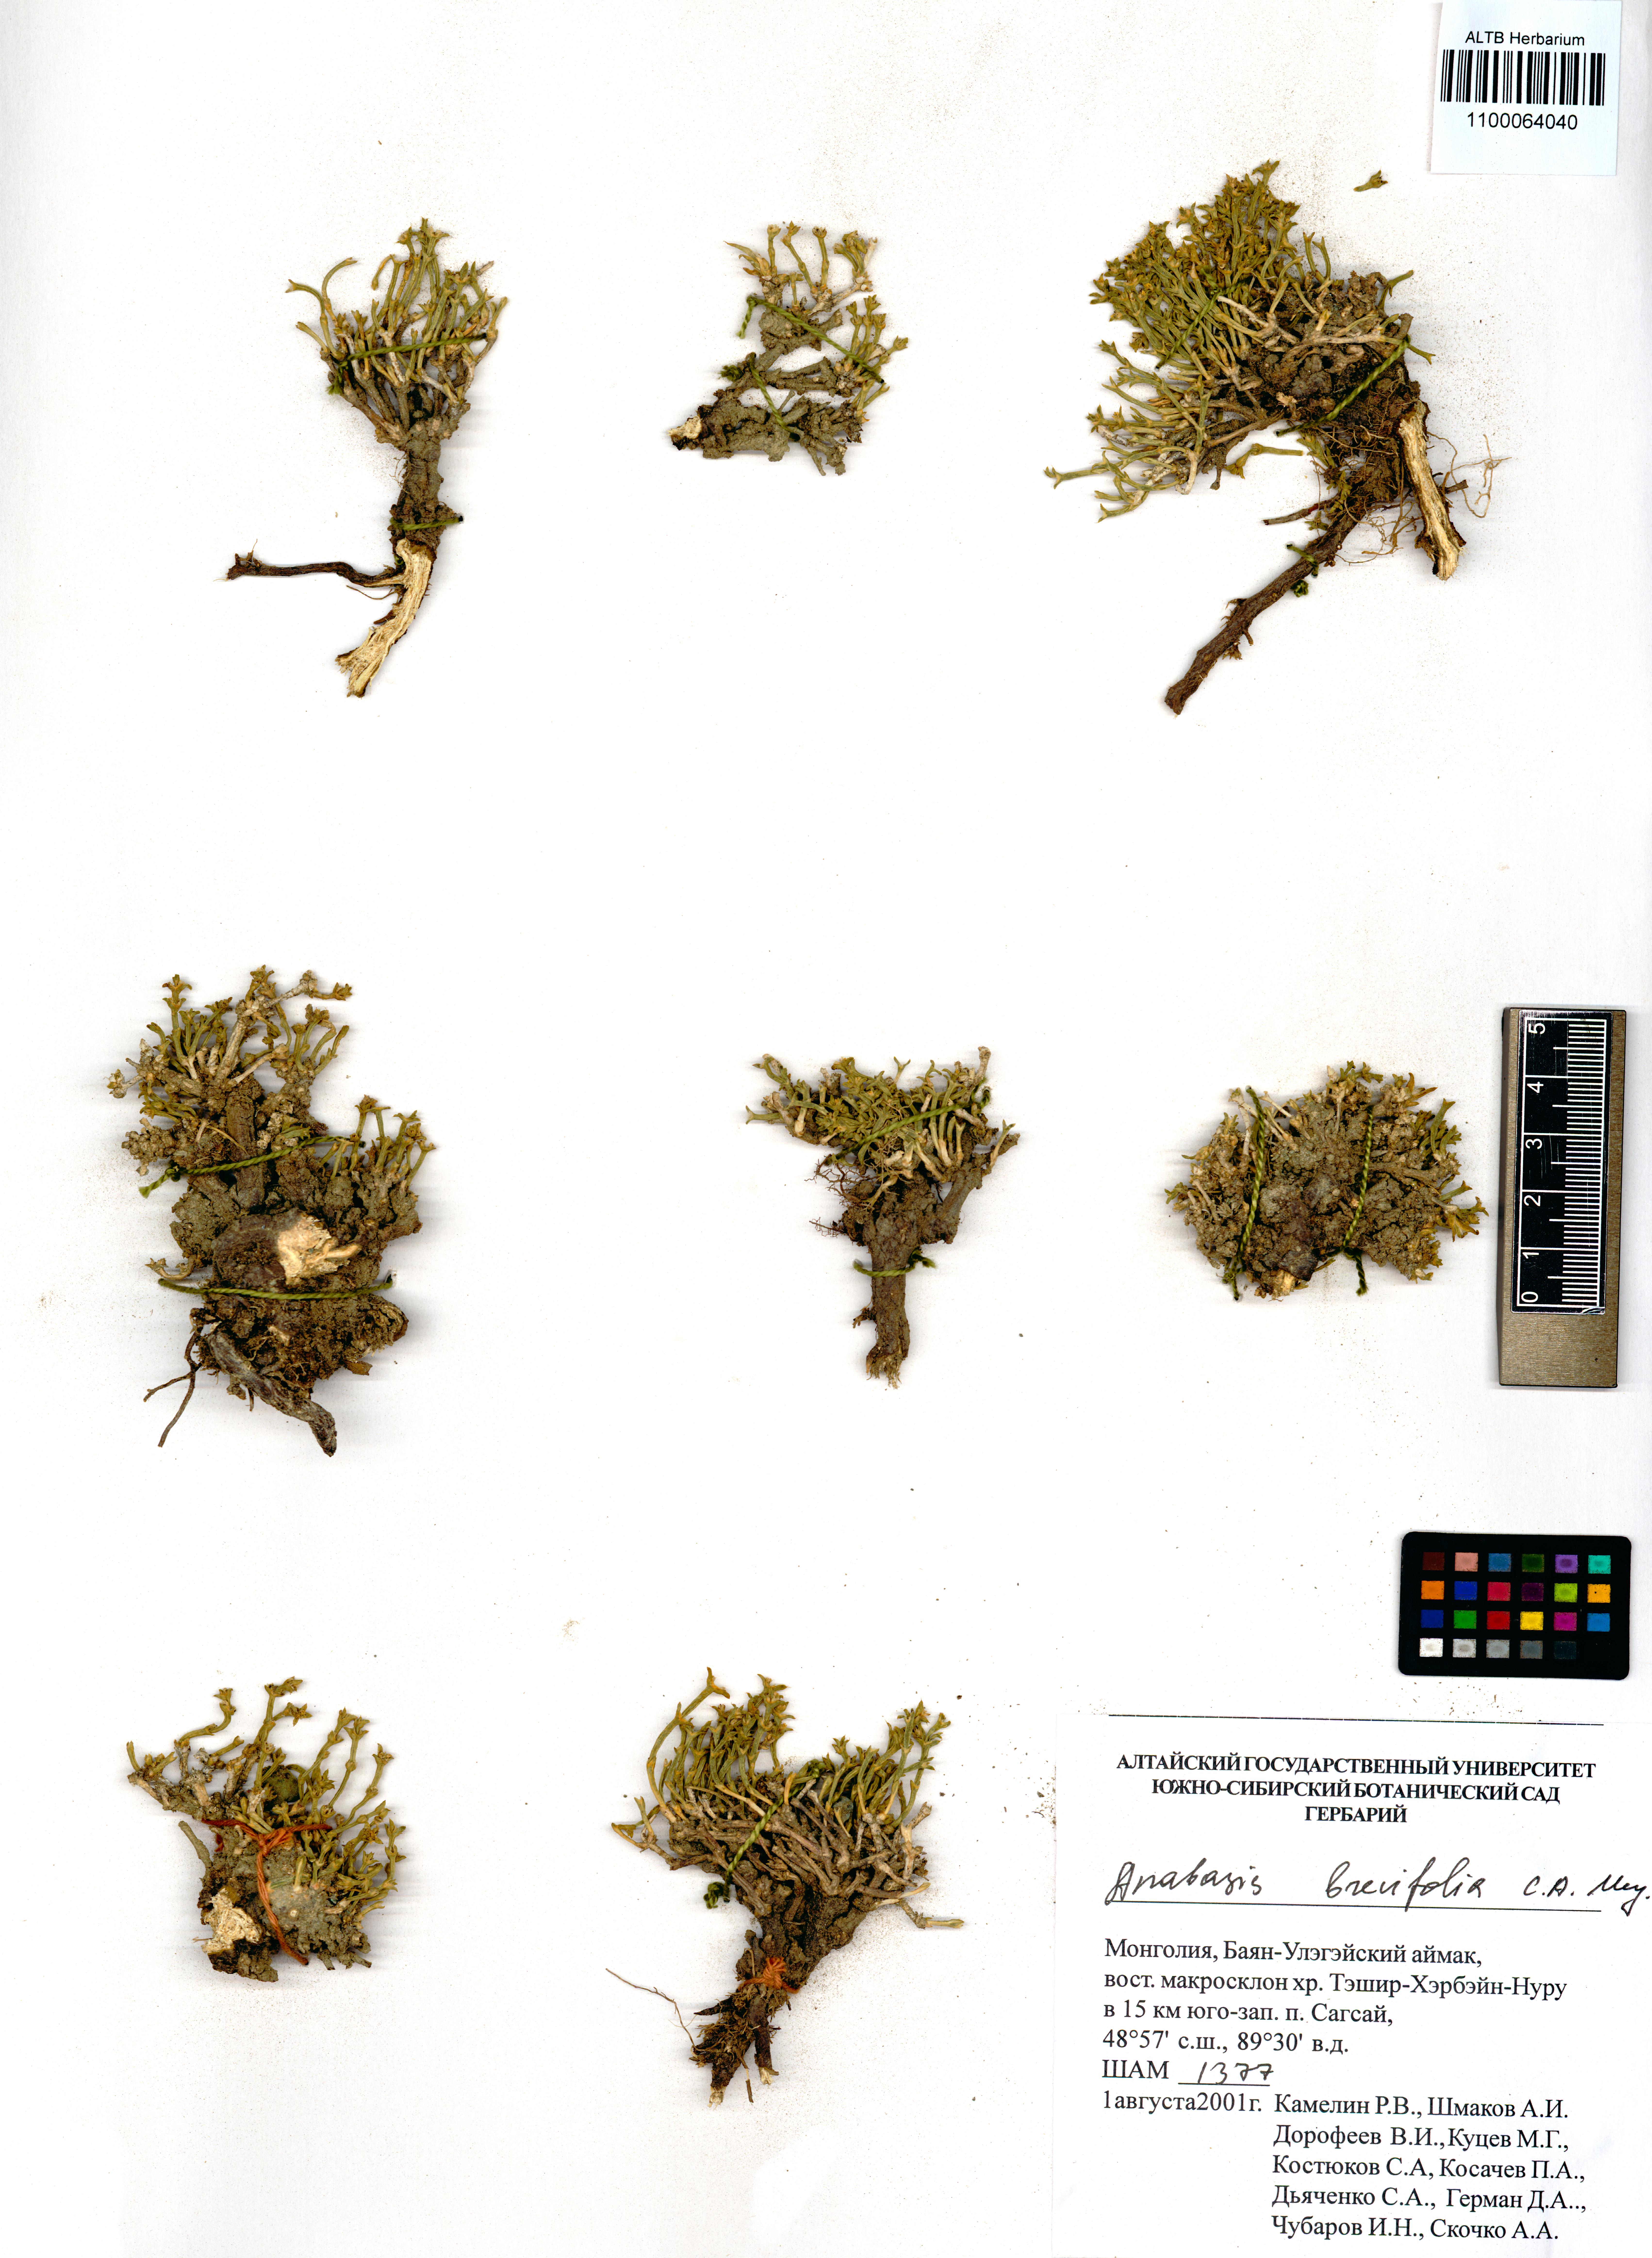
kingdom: Plantae
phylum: Tracheophyta
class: Magnoliopsida
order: Caryophyllales
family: Amaranthaceae
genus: Anabasis
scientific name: Anabasis brevifolia
